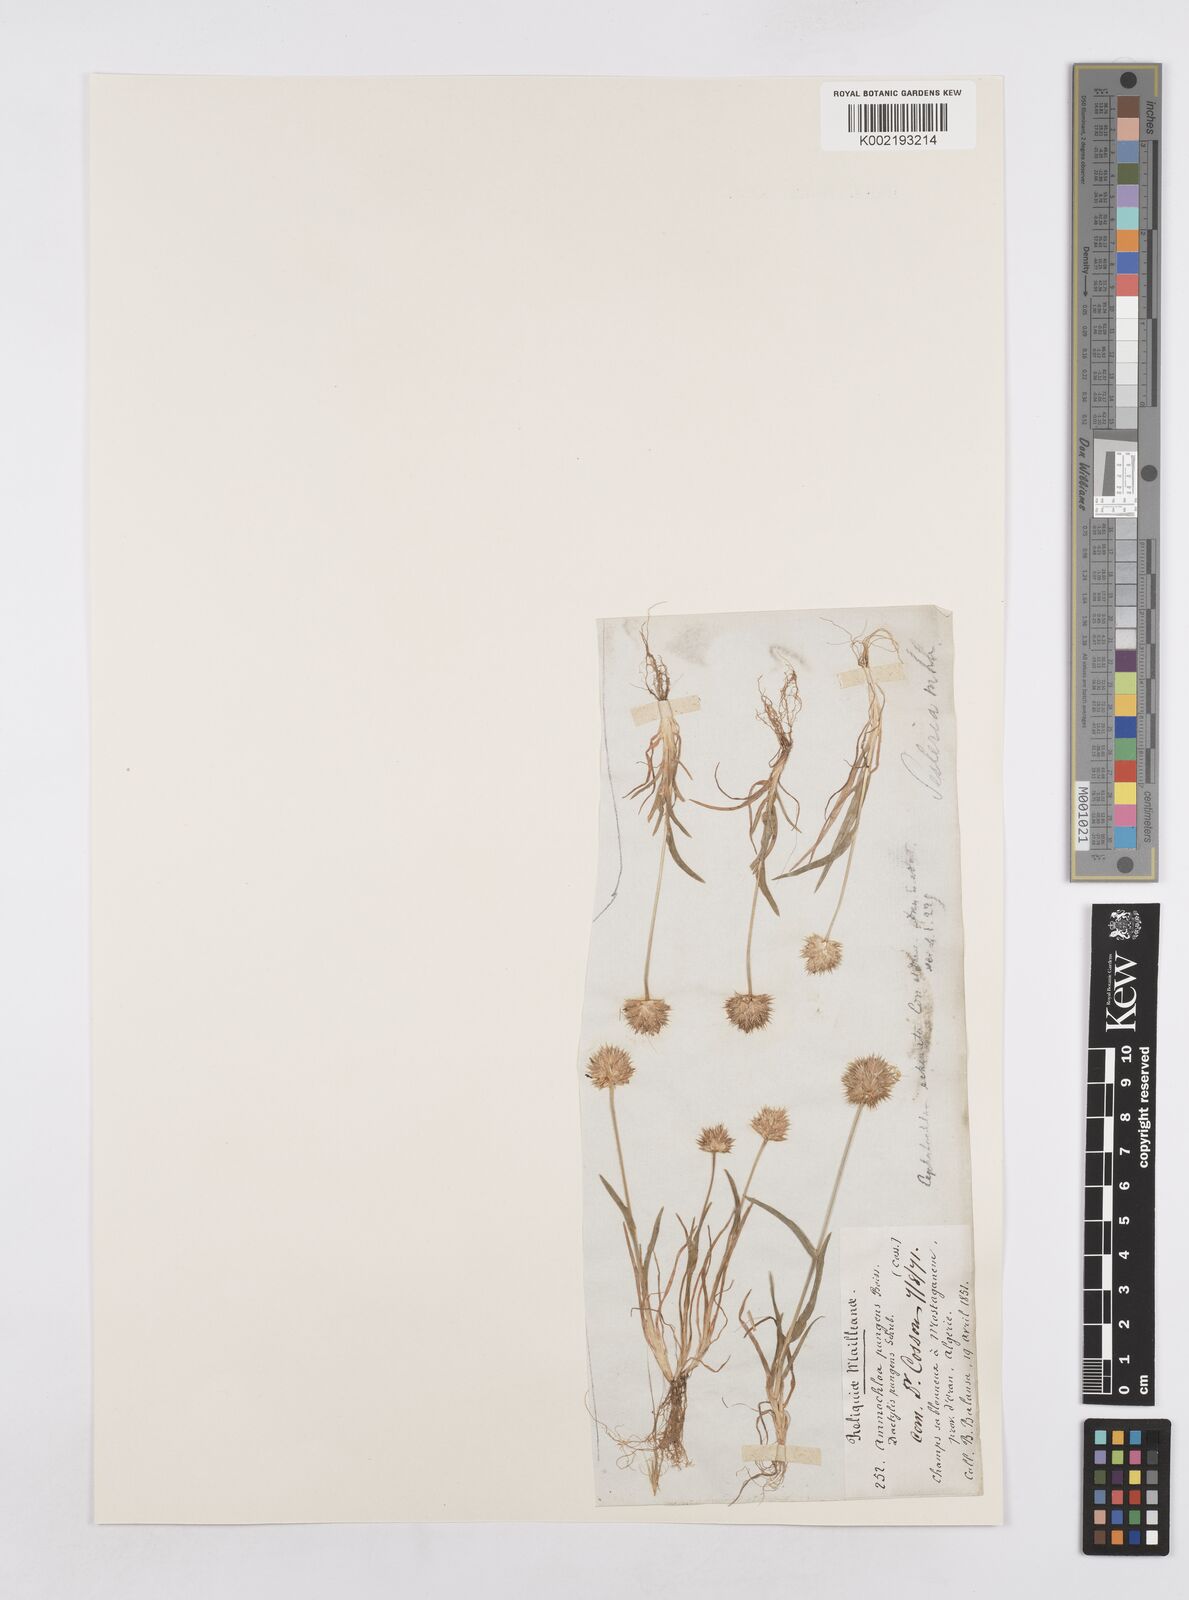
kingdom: Plantae
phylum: Tracheophyta
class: Liliopsida
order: Poales
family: Poaceae
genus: Ammochloa
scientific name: Ammochloa pungens
